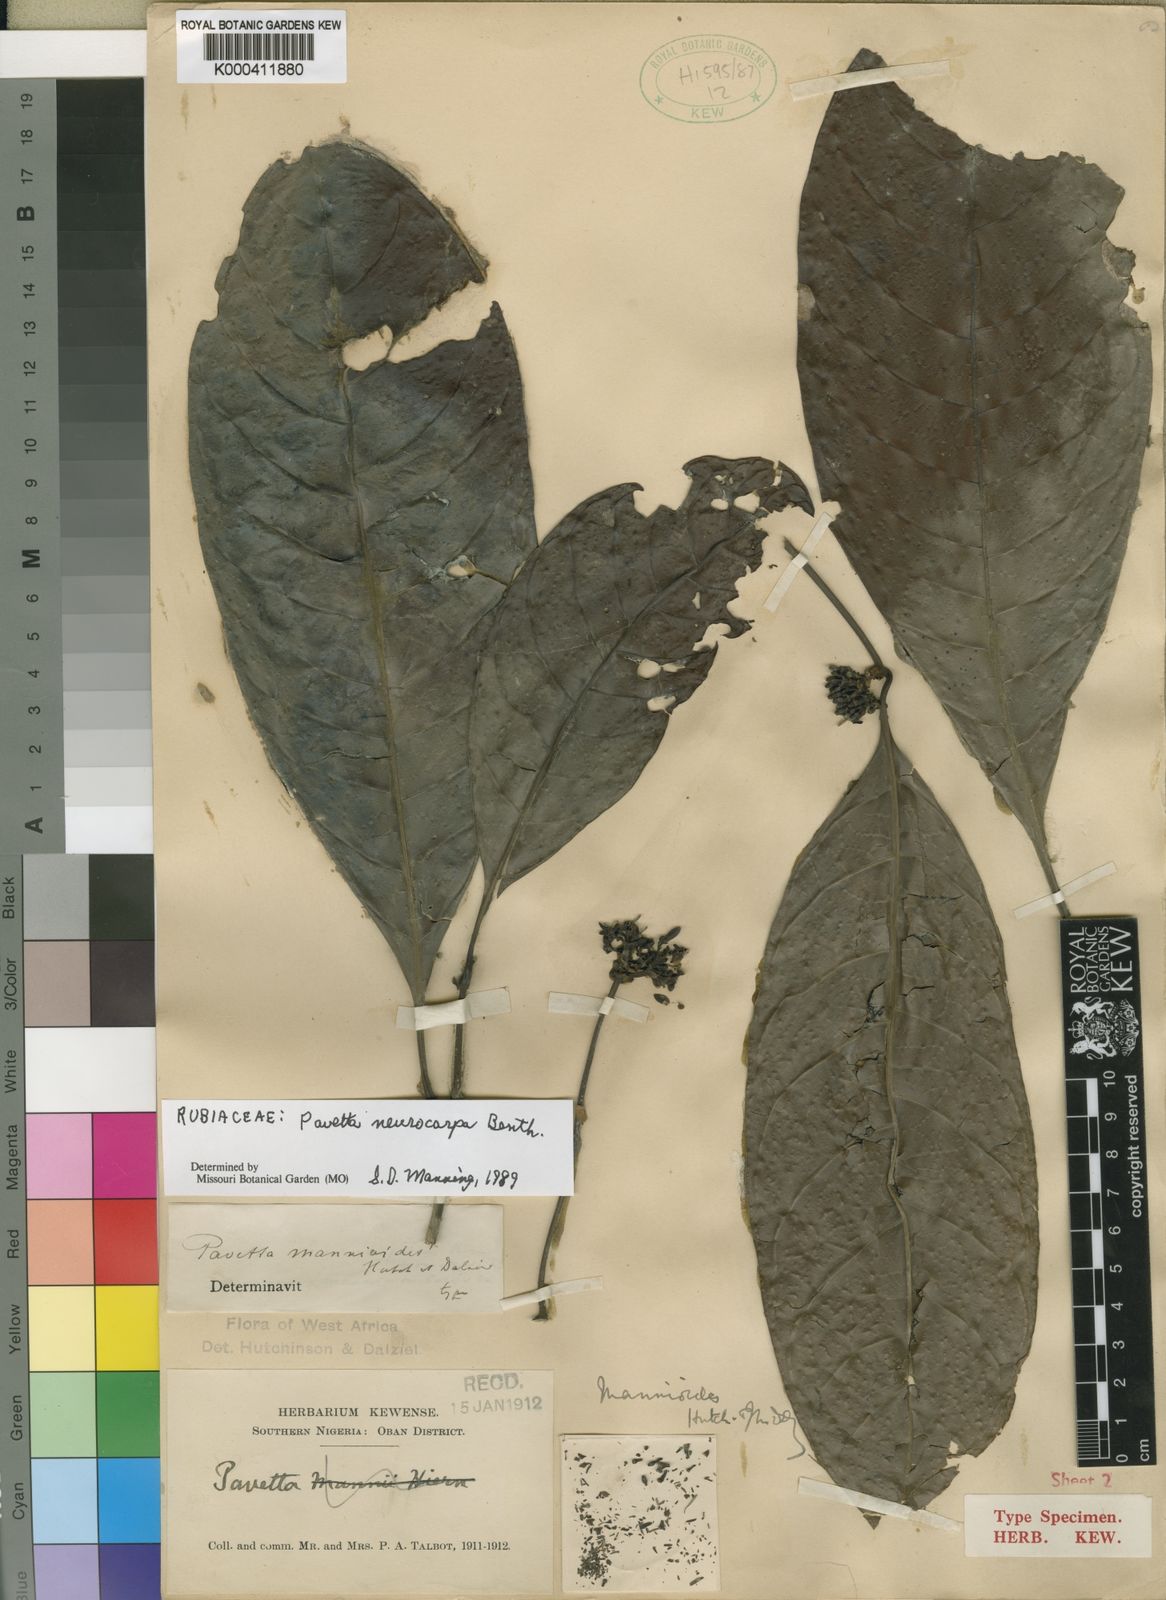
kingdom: Plantae
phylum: Tracheophyta
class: Magnoliopsida
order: Gentianales
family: Rubiaceae
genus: Pavetta
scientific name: Pavetta neurocarpa
